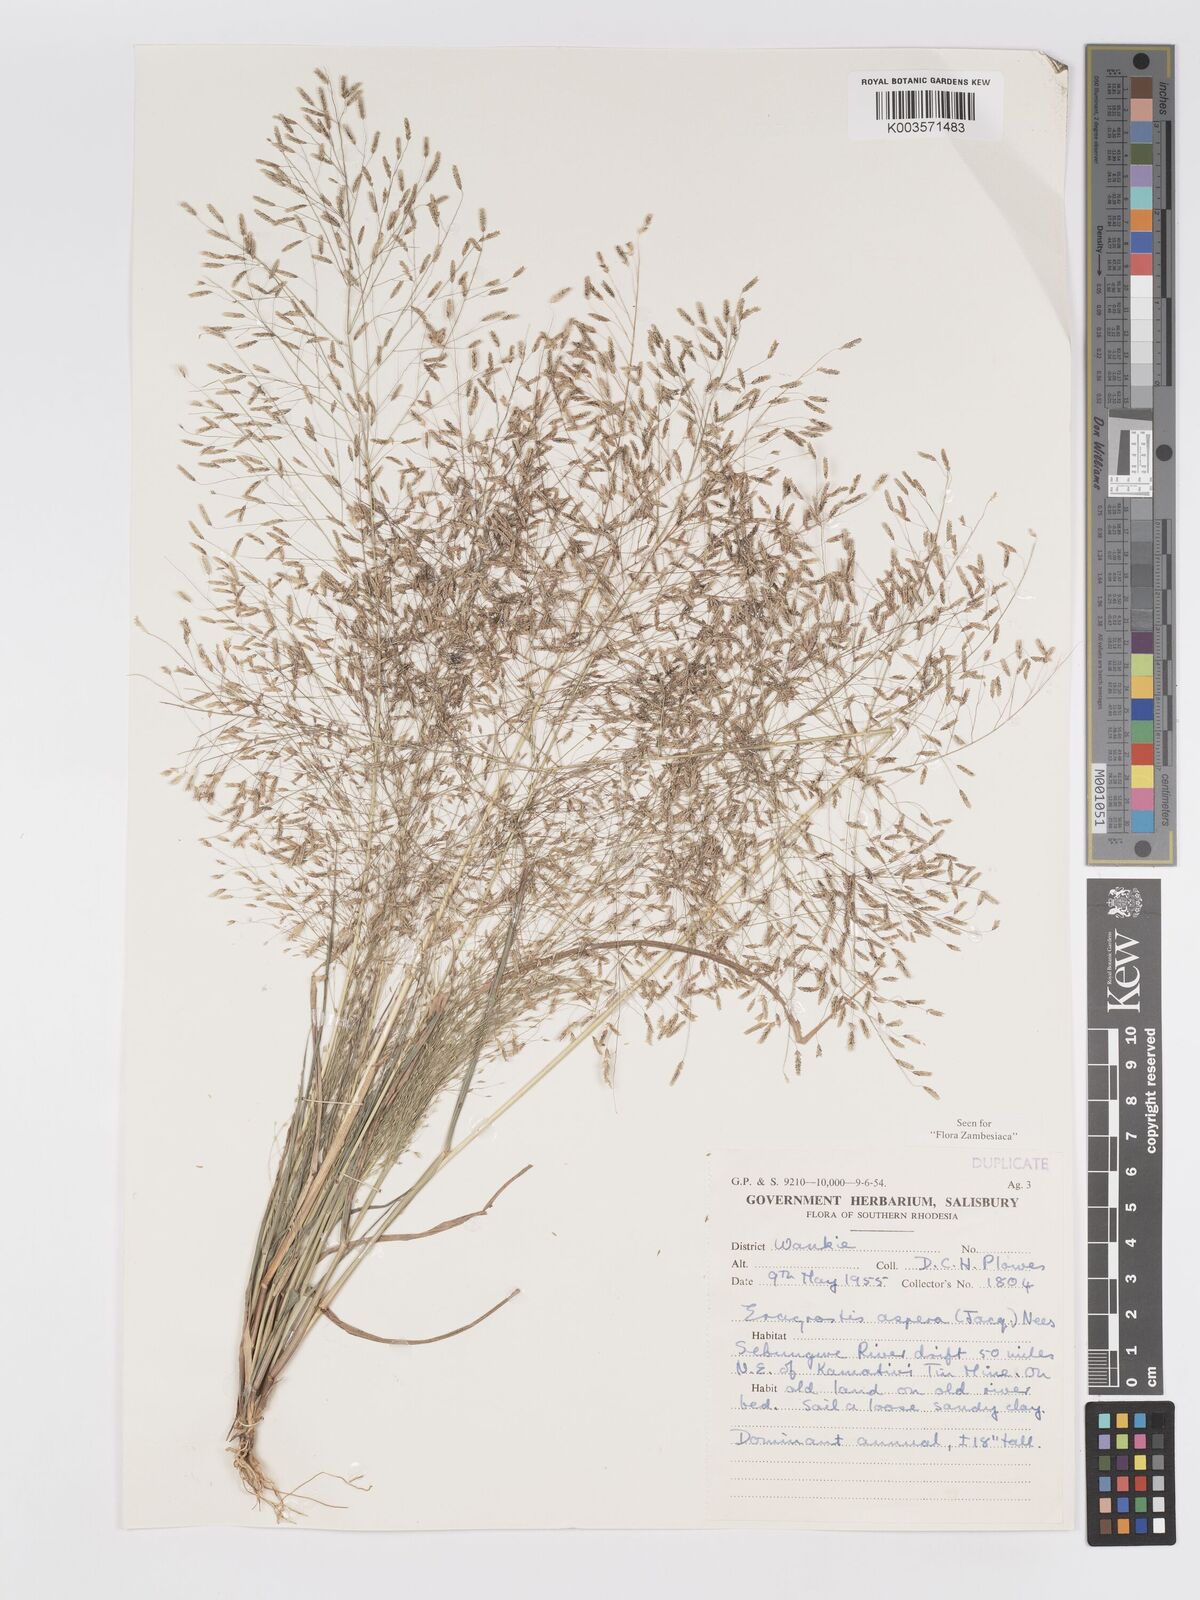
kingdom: Plantae
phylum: Tracheophyta
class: Liliopsida
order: Poales
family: Poaceae
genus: Eragrostis
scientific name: Eragrostis aspera
